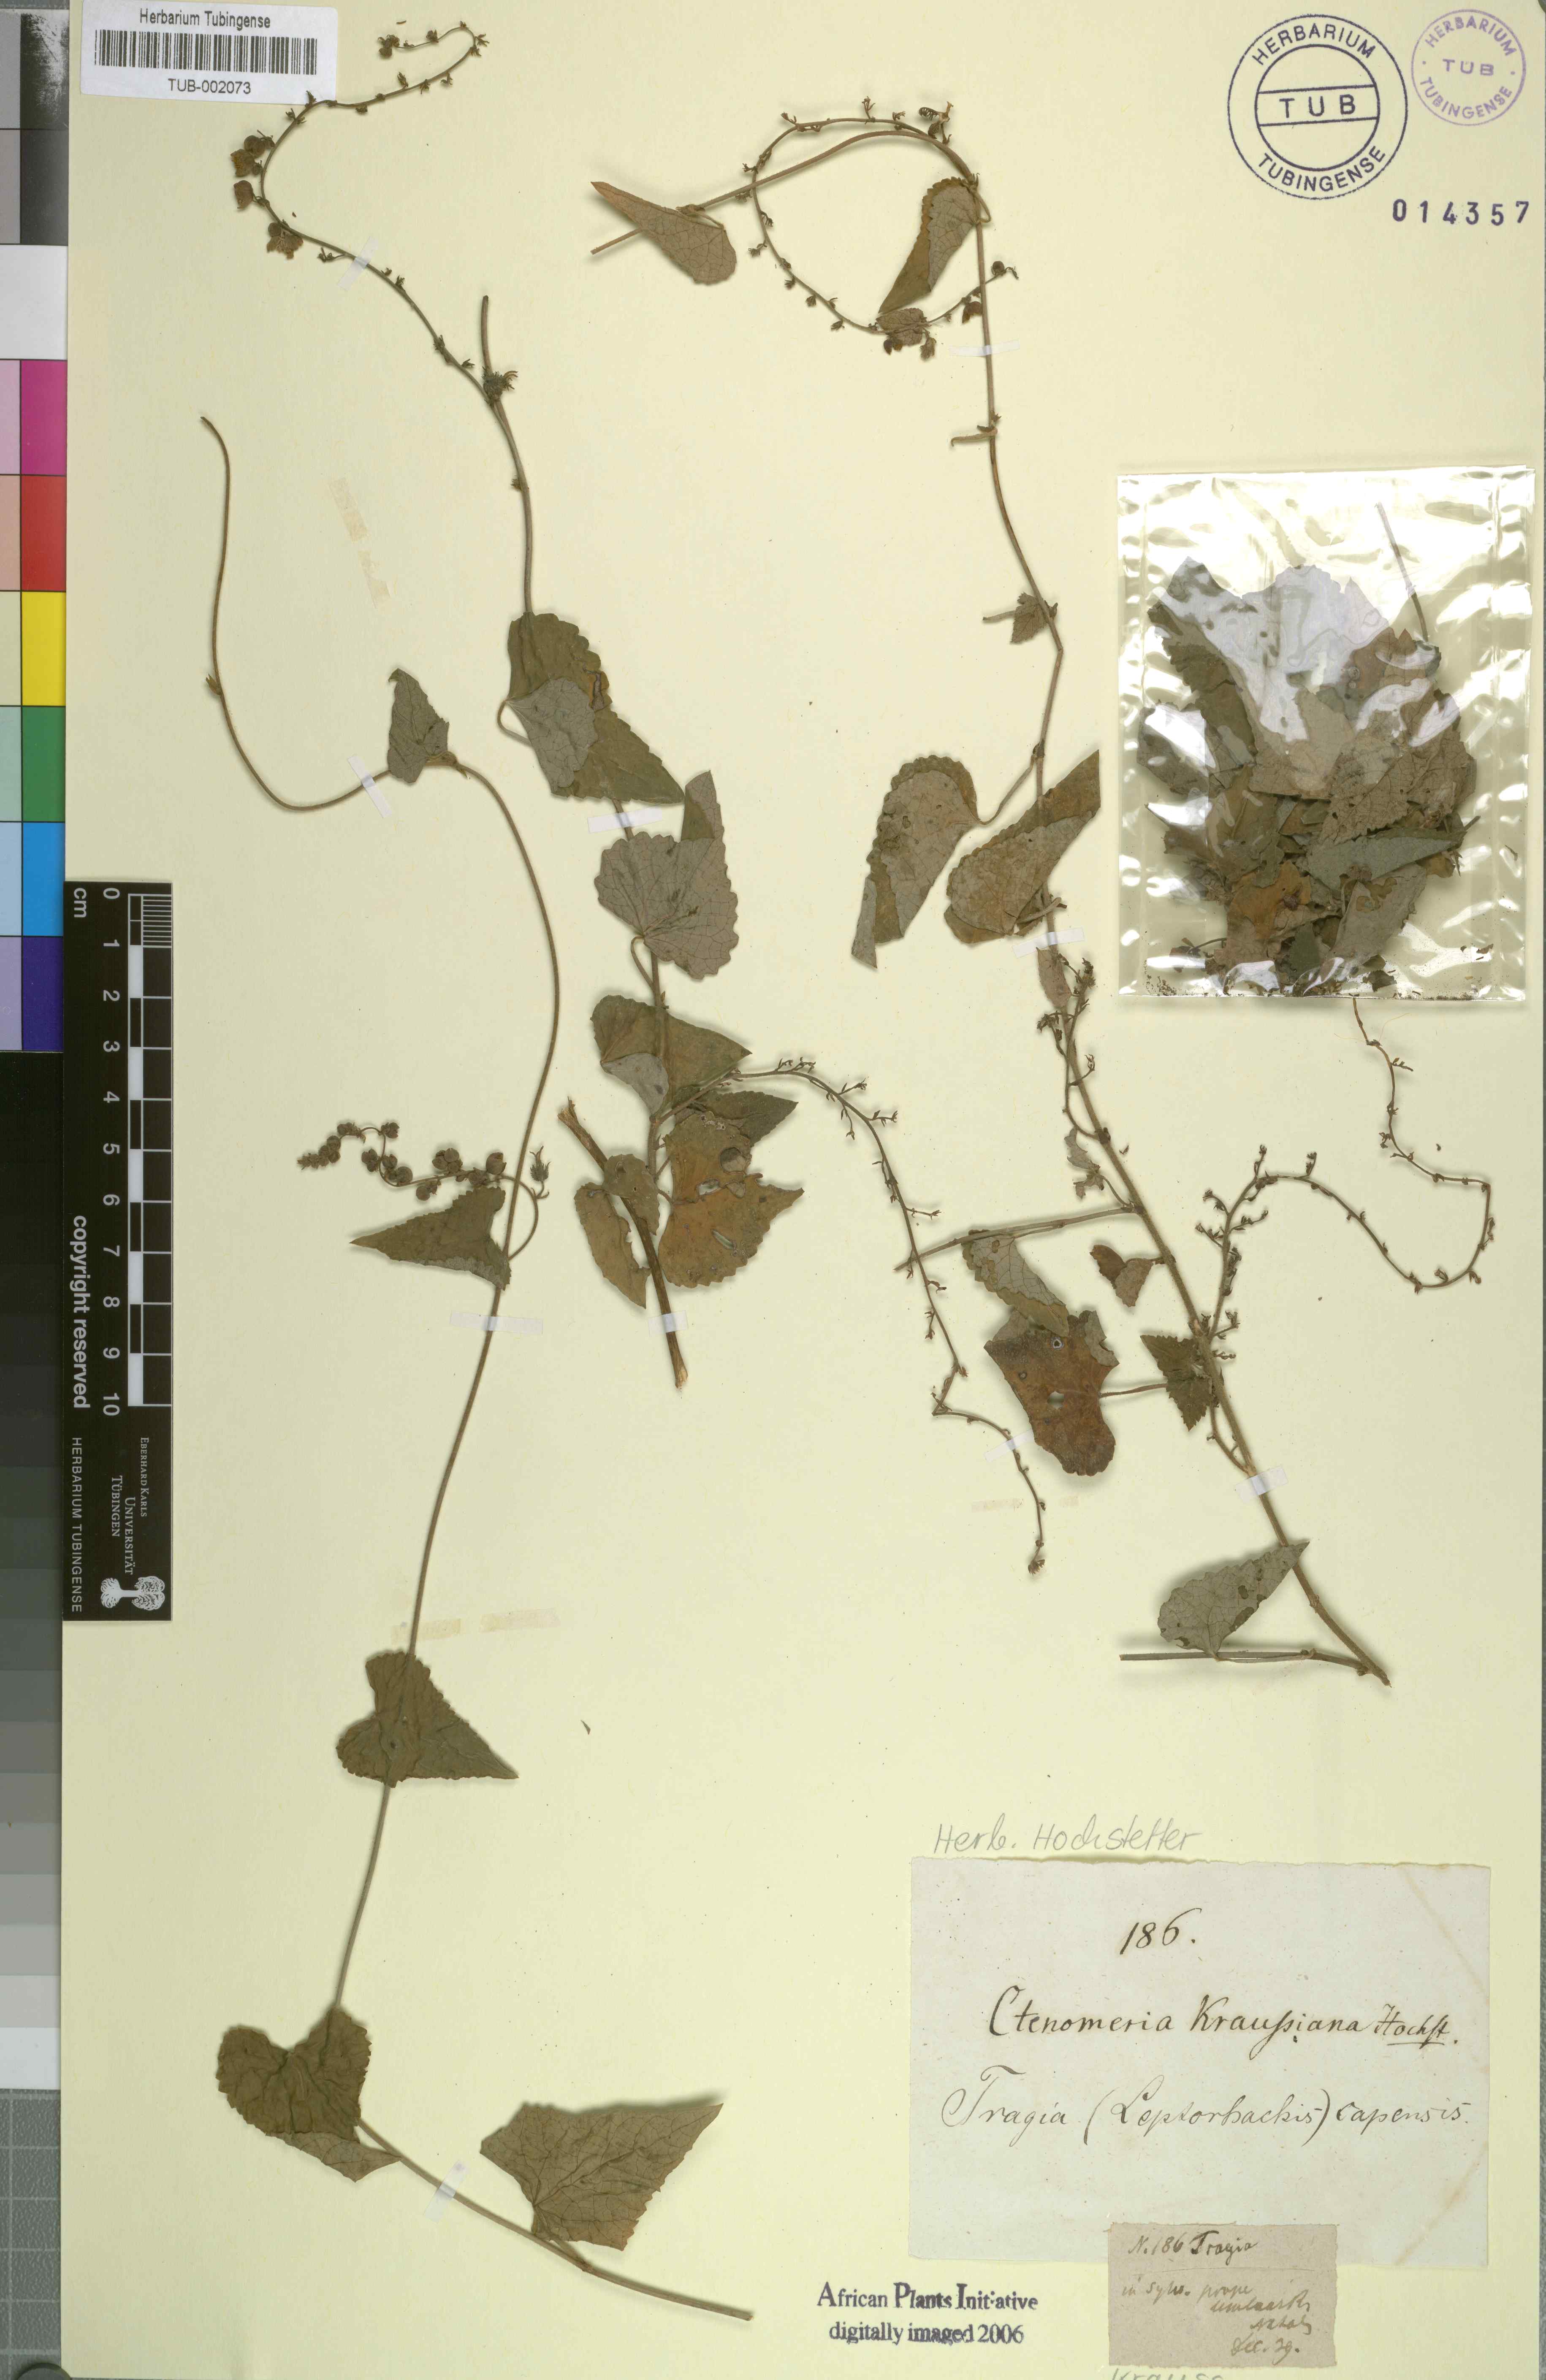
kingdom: Plantae
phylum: Tracheophyta
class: Magnoliopsida
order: Malpighiales
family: Euphorbiaceae
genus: Tragia
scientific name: Tragia capensis
